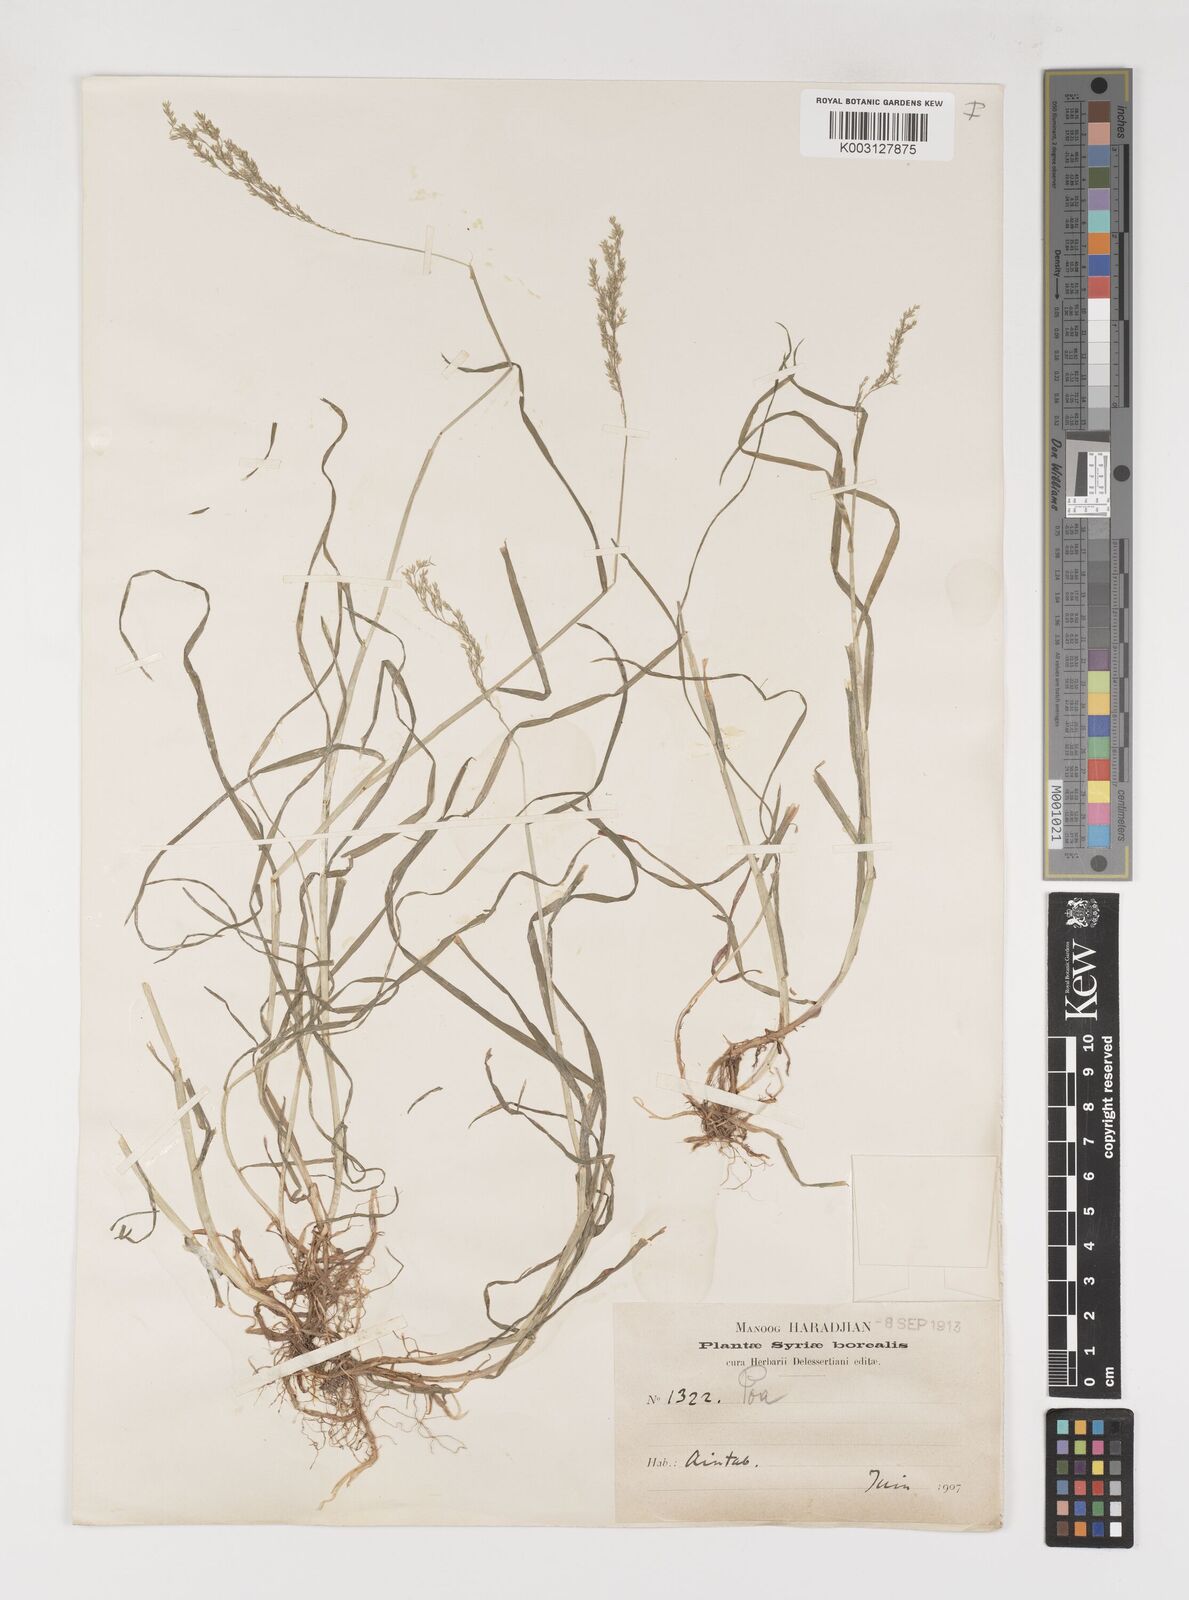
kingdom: Plantae
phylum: Tracheophyta
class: Liliopsida
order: Poales
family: Poaceae
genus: Poa
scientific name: Poa trivialis
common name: Rough bluegrass
